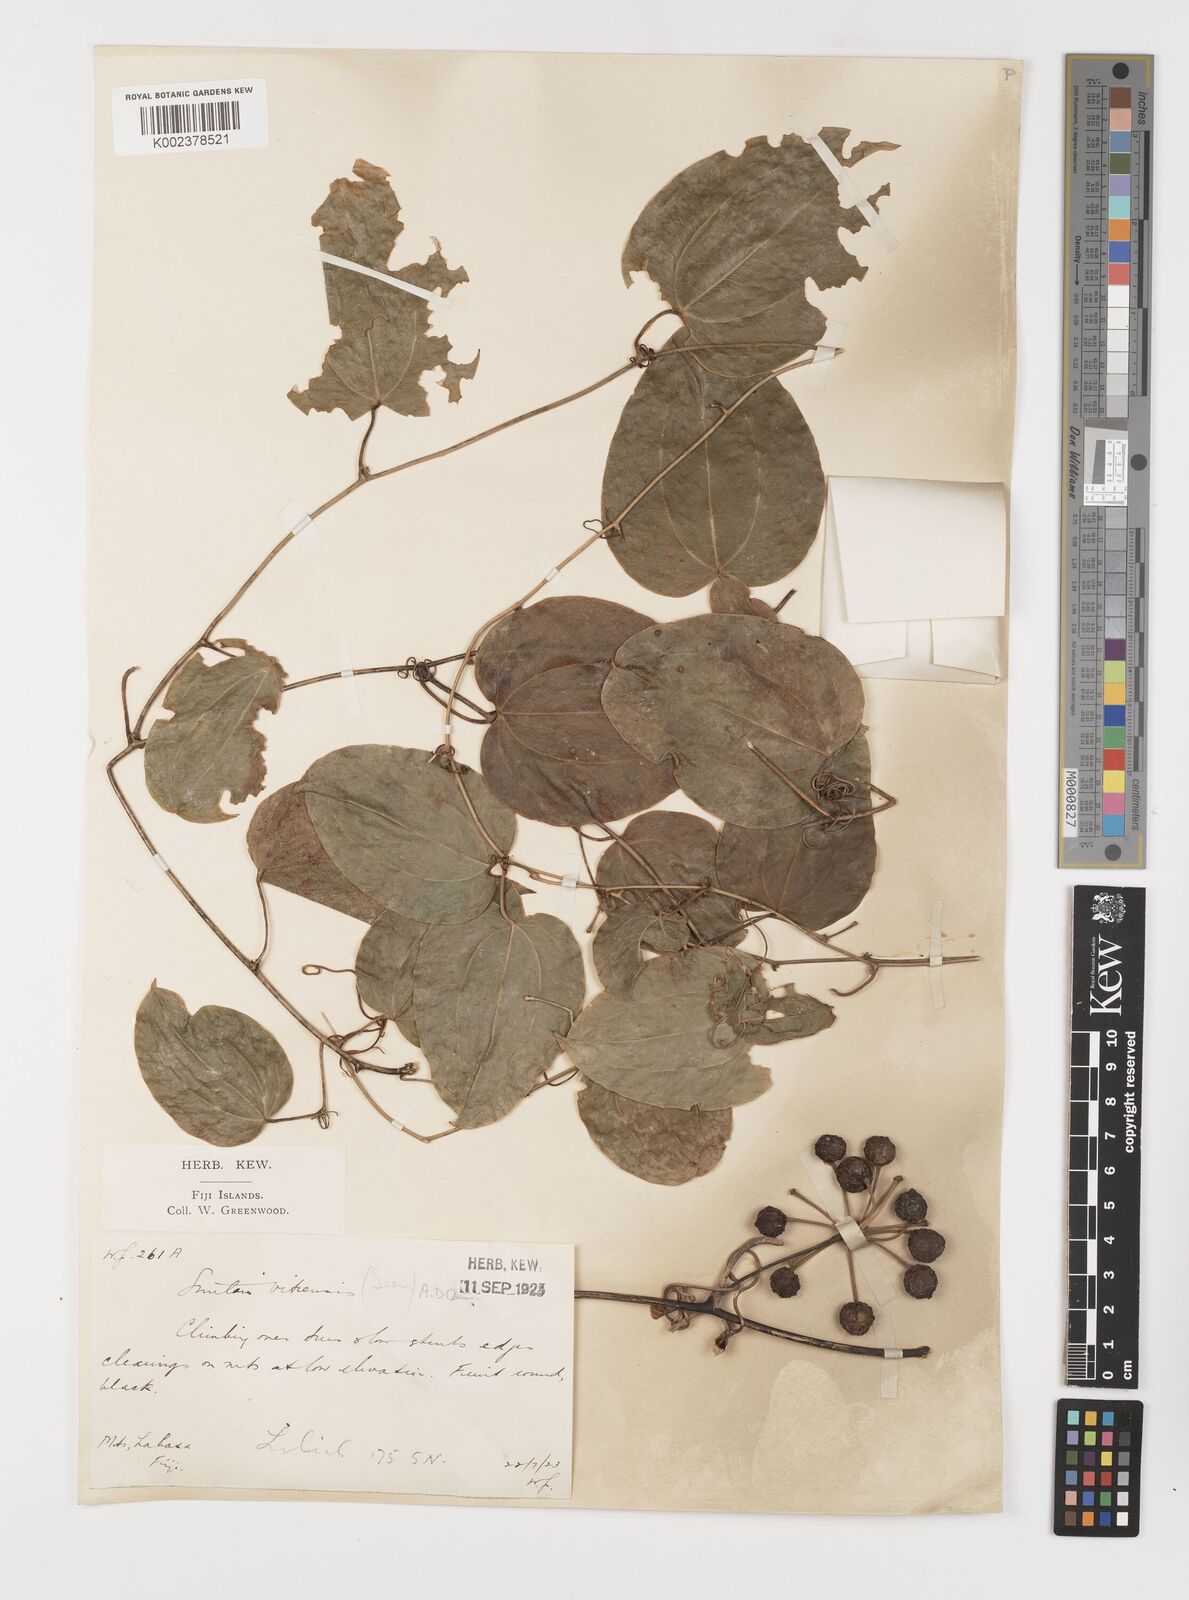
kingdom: Plantae
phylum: Tracheophyta
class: Liliopsida
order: Liliales
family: Smilacaceae
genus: Smilax
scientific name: Smilax vitiensis
